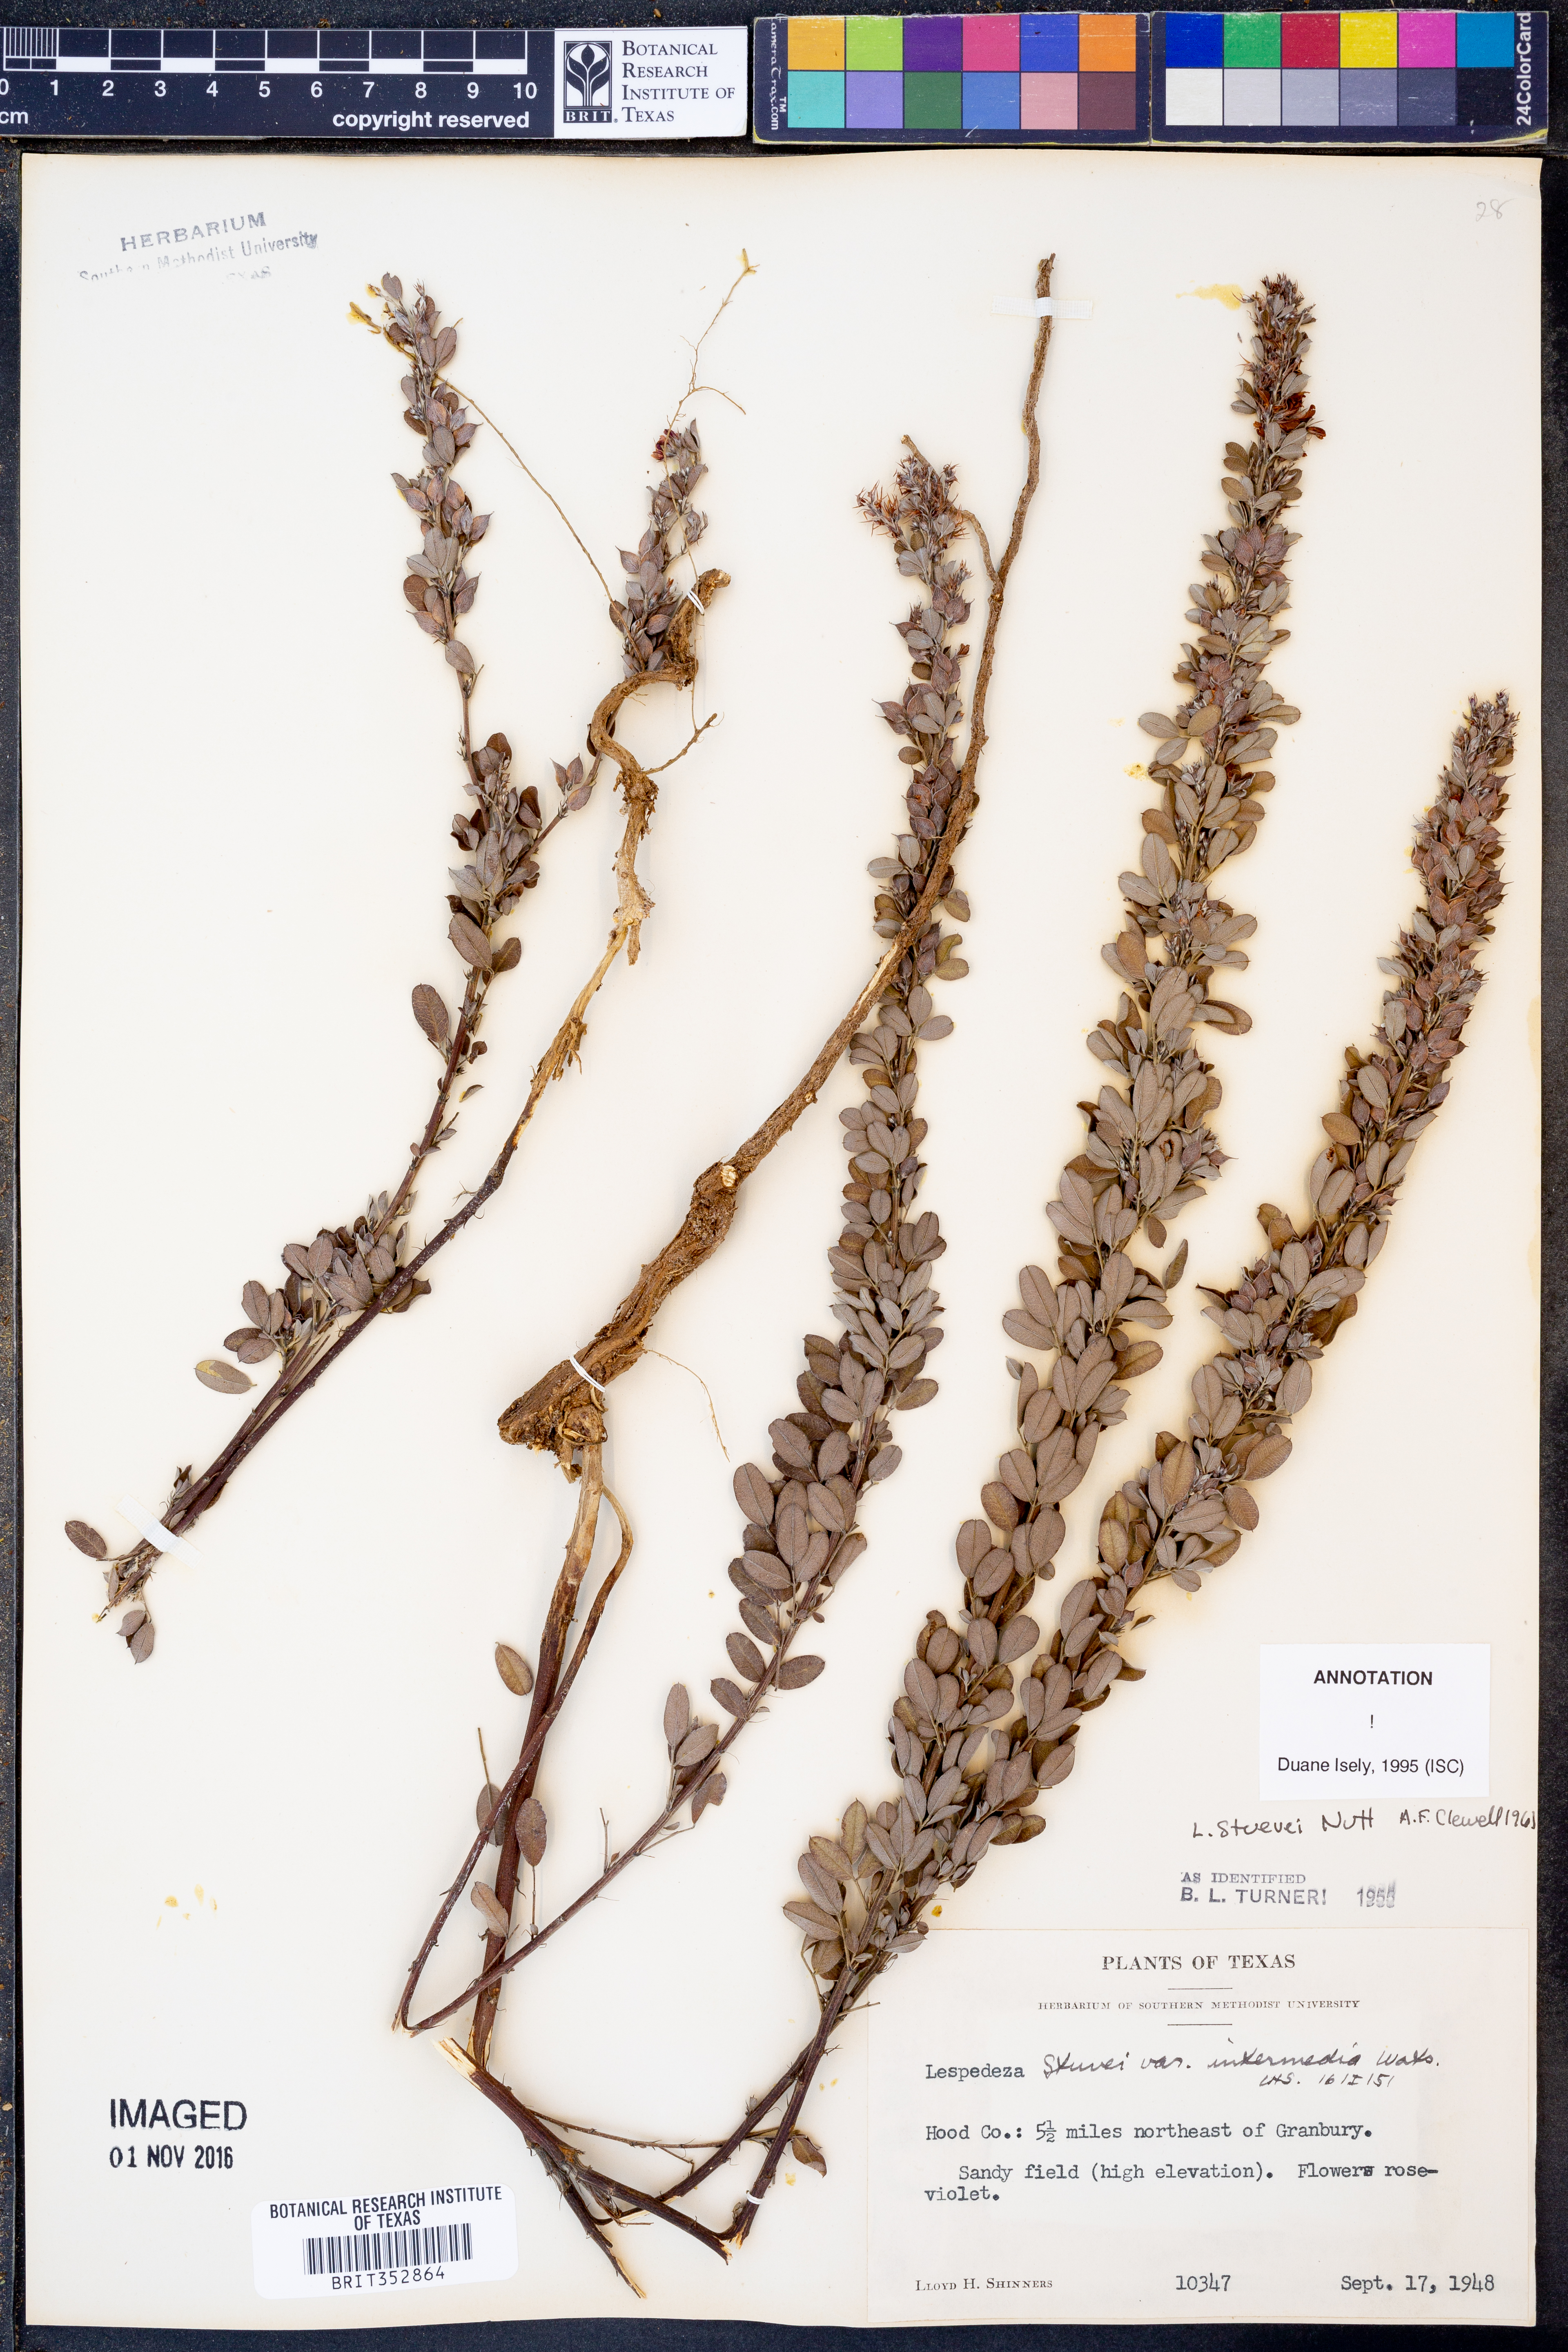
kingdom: Plantae
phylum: Tracheophyta
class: Magnoliopsida
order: Fabales
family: Fabaceae
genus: Lespedeza
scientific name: Lespedeza stuevei
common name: Tall bush-clover
